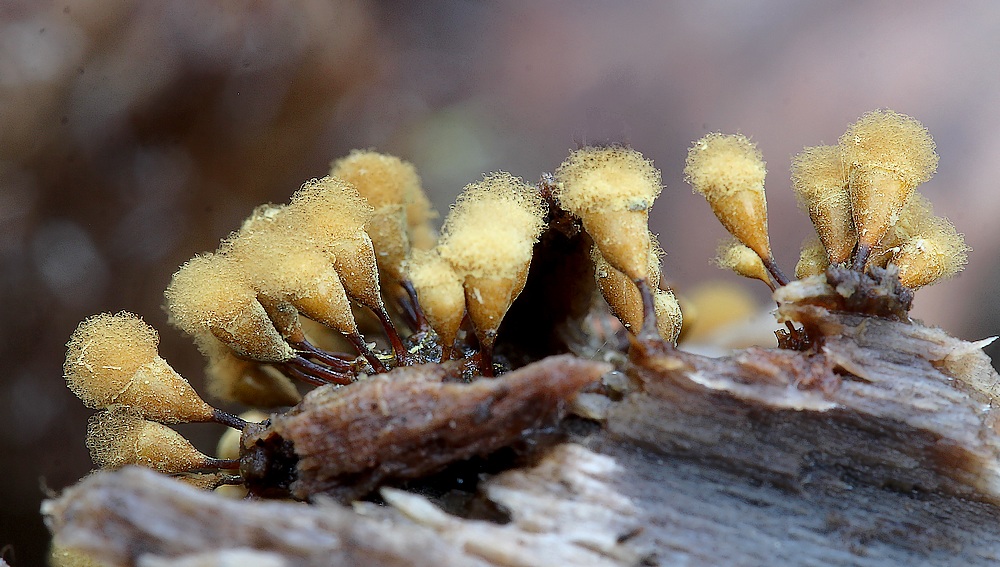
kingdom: Protozoa
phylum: Mycetozoa
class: Myxomycetes
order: Trichiales
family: Arcyriaceae
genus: Hemitrichia
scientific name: Hemitrichia clavata
